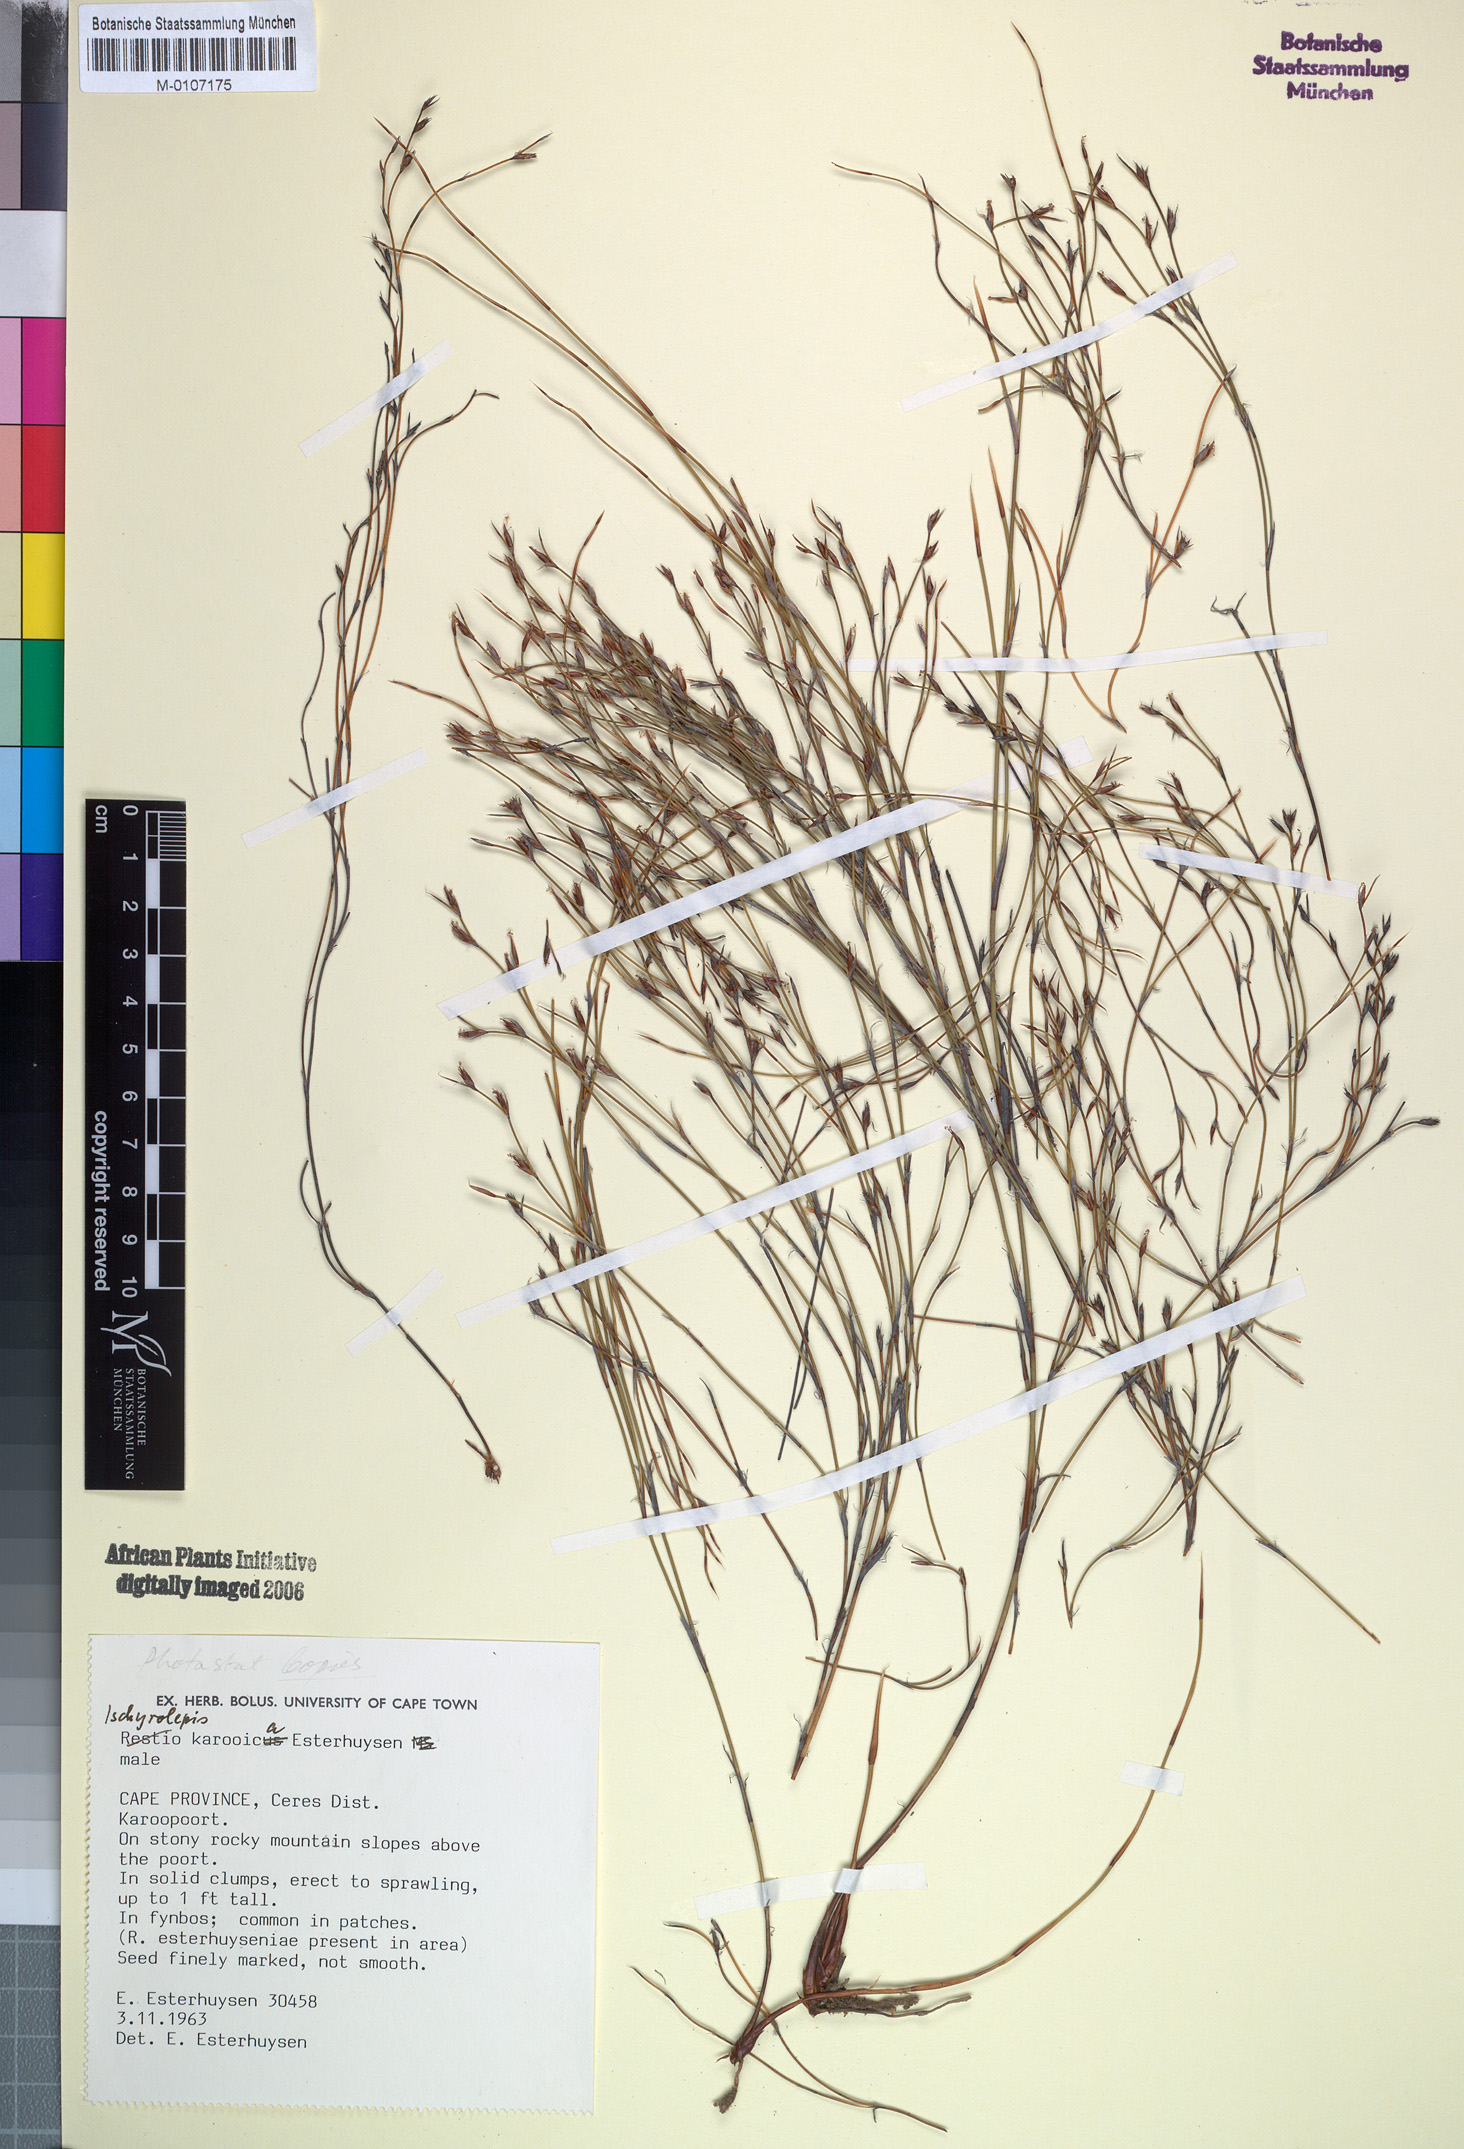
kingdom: Plantae
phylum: Tracheophyta
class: Liliopsida
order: Poales
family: Restionaceae
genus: Restio
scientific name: Restio karooicus
